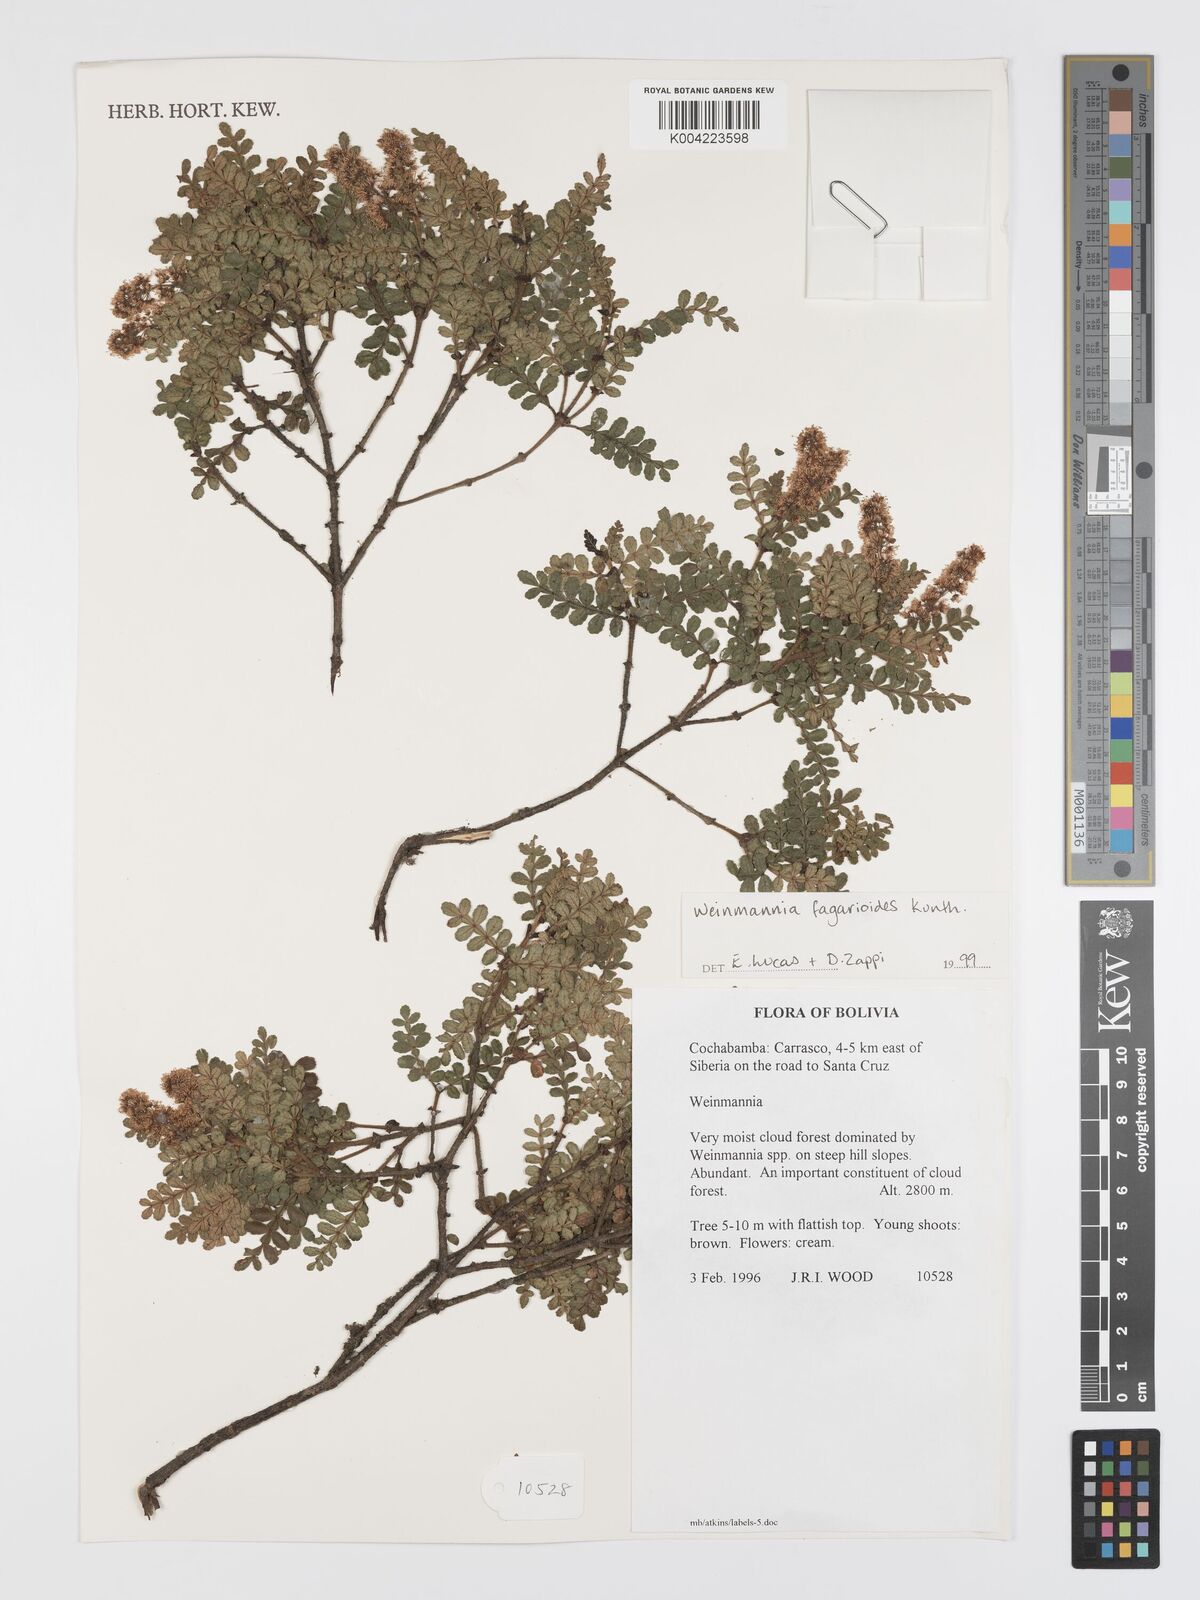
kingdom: Plantae
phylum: Tracheophyta
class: Magnoliopsida
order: Oxalidales
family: Cunoniaceae
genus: Weinmannia
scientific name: Weinmannia fagaroides
